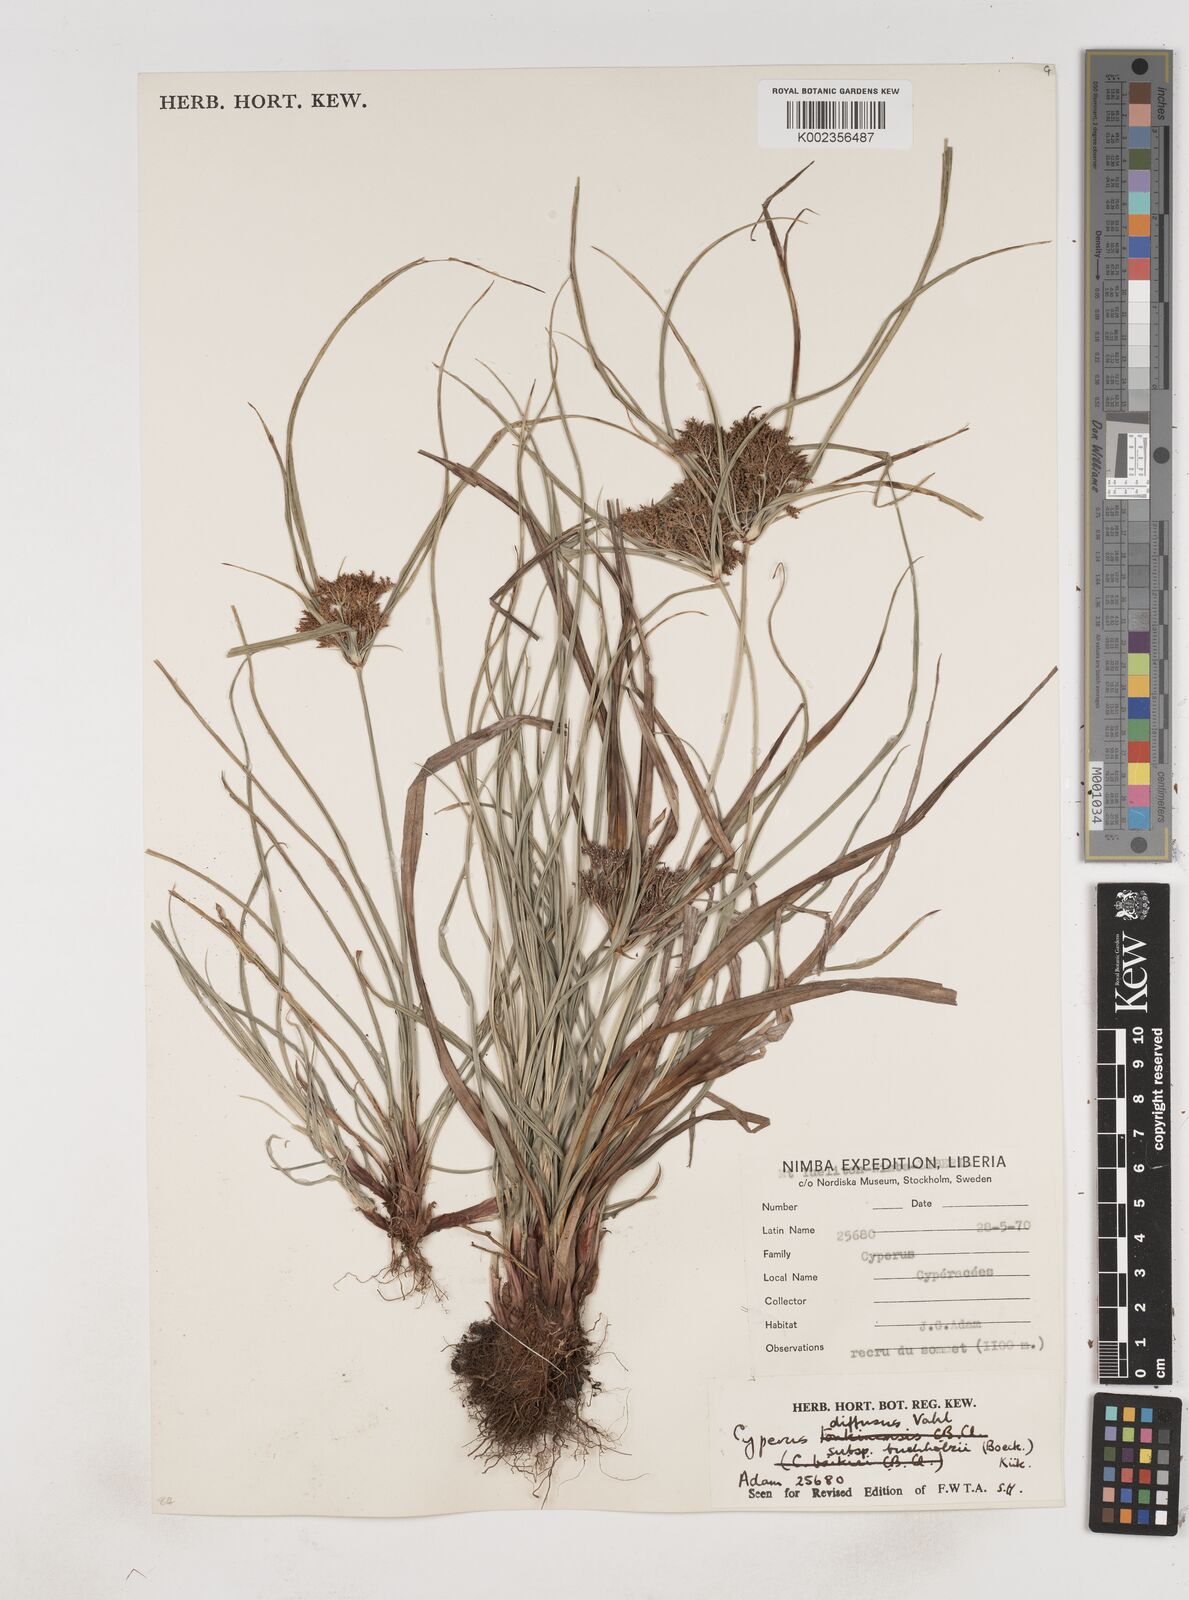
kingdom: Plantae
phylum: Tracheophyta
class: Liliopsida
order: Poales
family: Cyperaceae
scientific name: Cyperaceae
